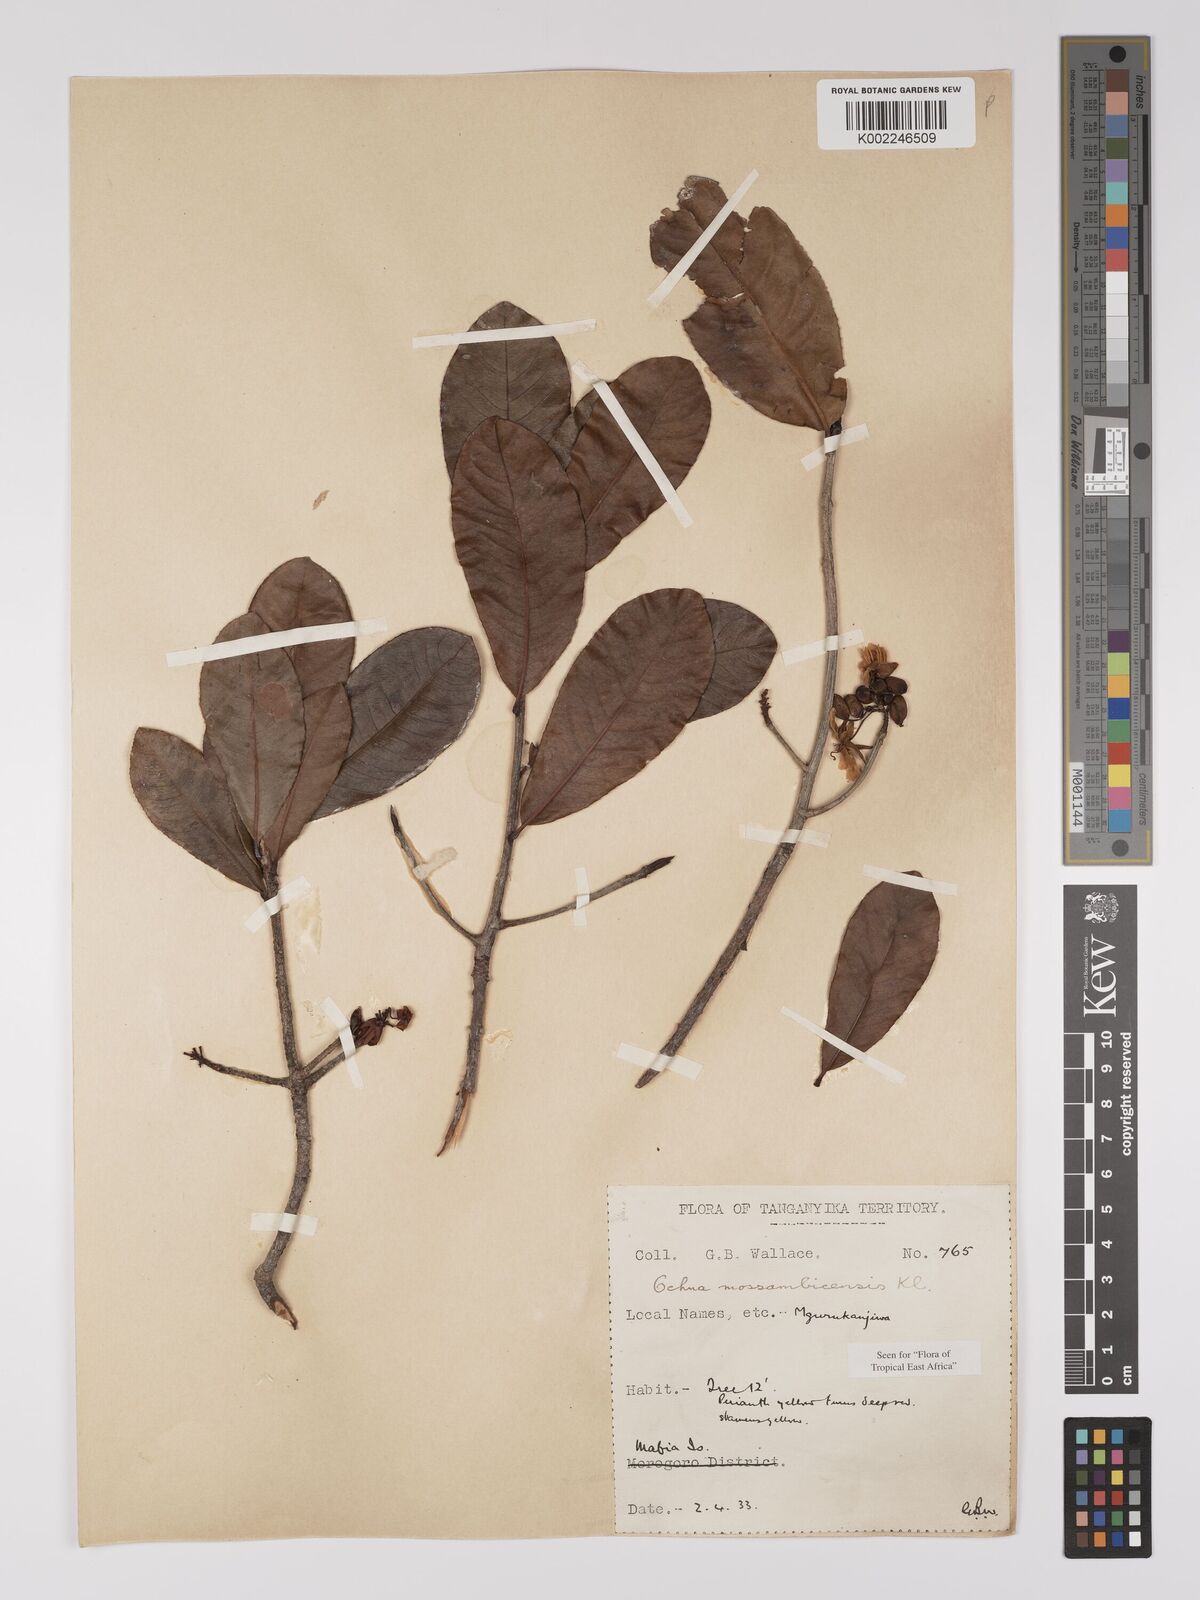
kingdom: Plantae
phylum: Tracheophyta
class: Magnoliopsida
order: Malpighiales
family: Ochnaceae
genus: Ochna
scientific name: Ochna atropurpurea
